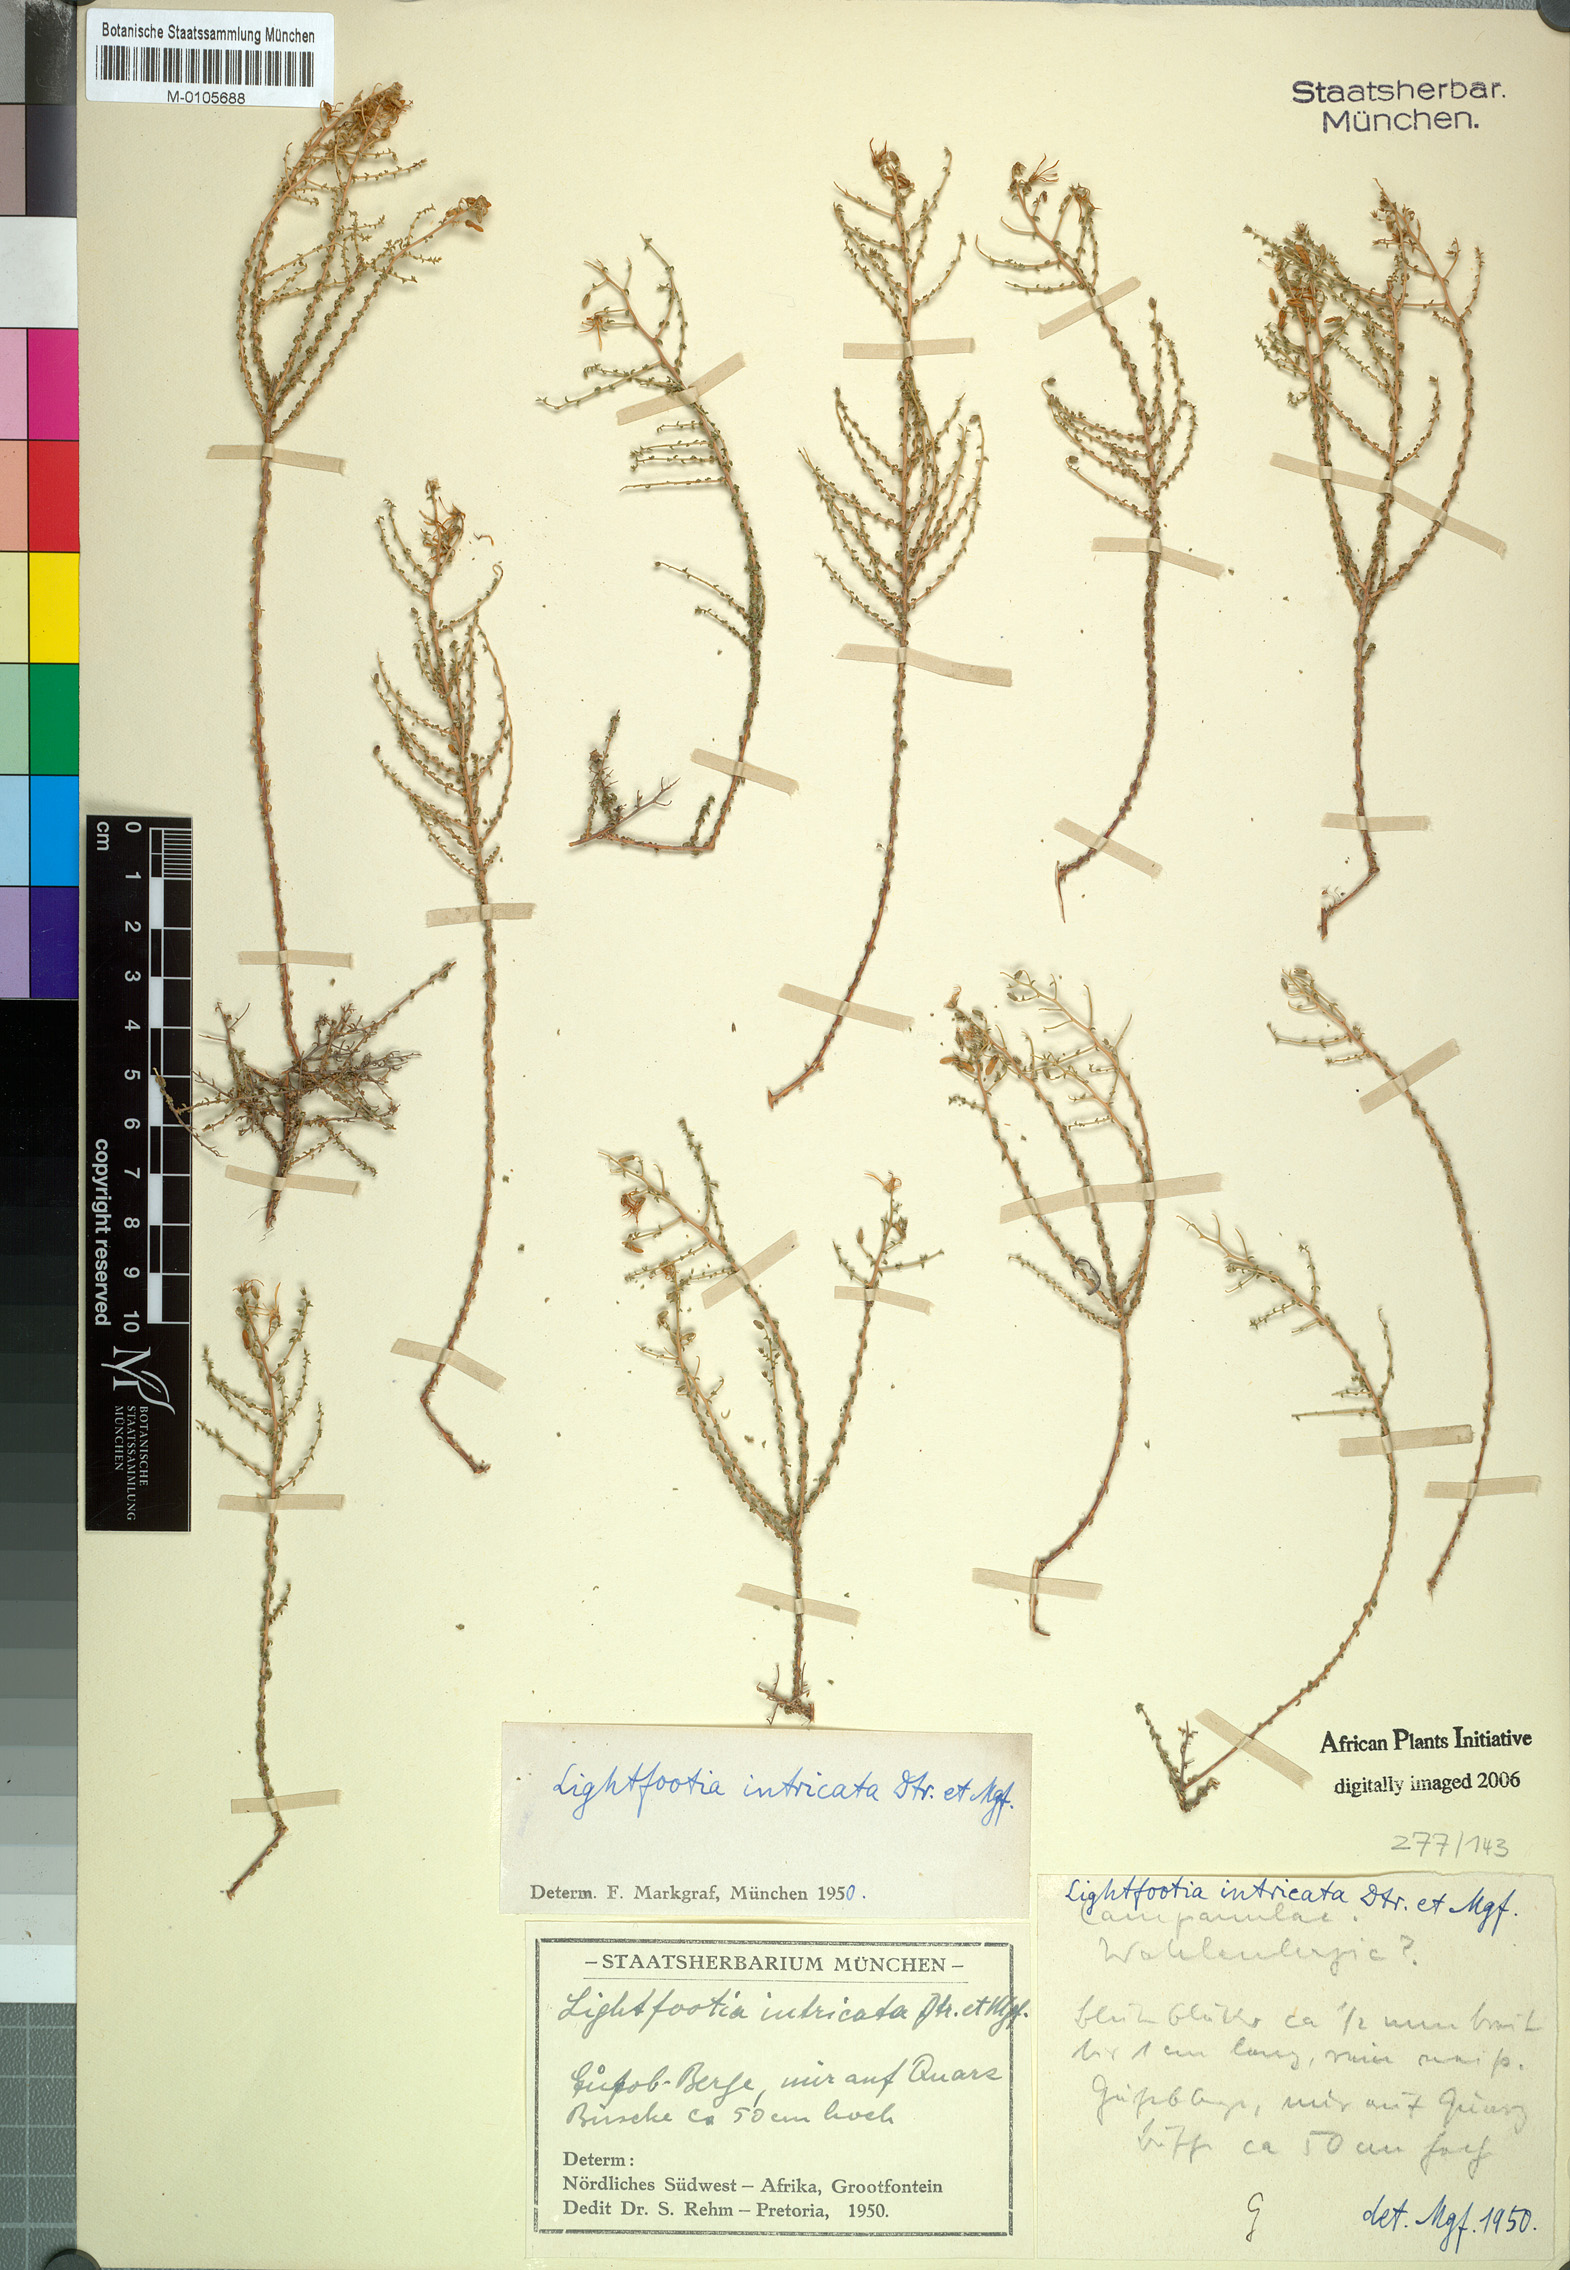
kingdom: Plantae
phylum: Tracheophyta
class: Magnoliopsida
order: Asterales
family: Campanulaceae
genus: Wahlenbergia
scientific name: Wahlenbergia denticulata
